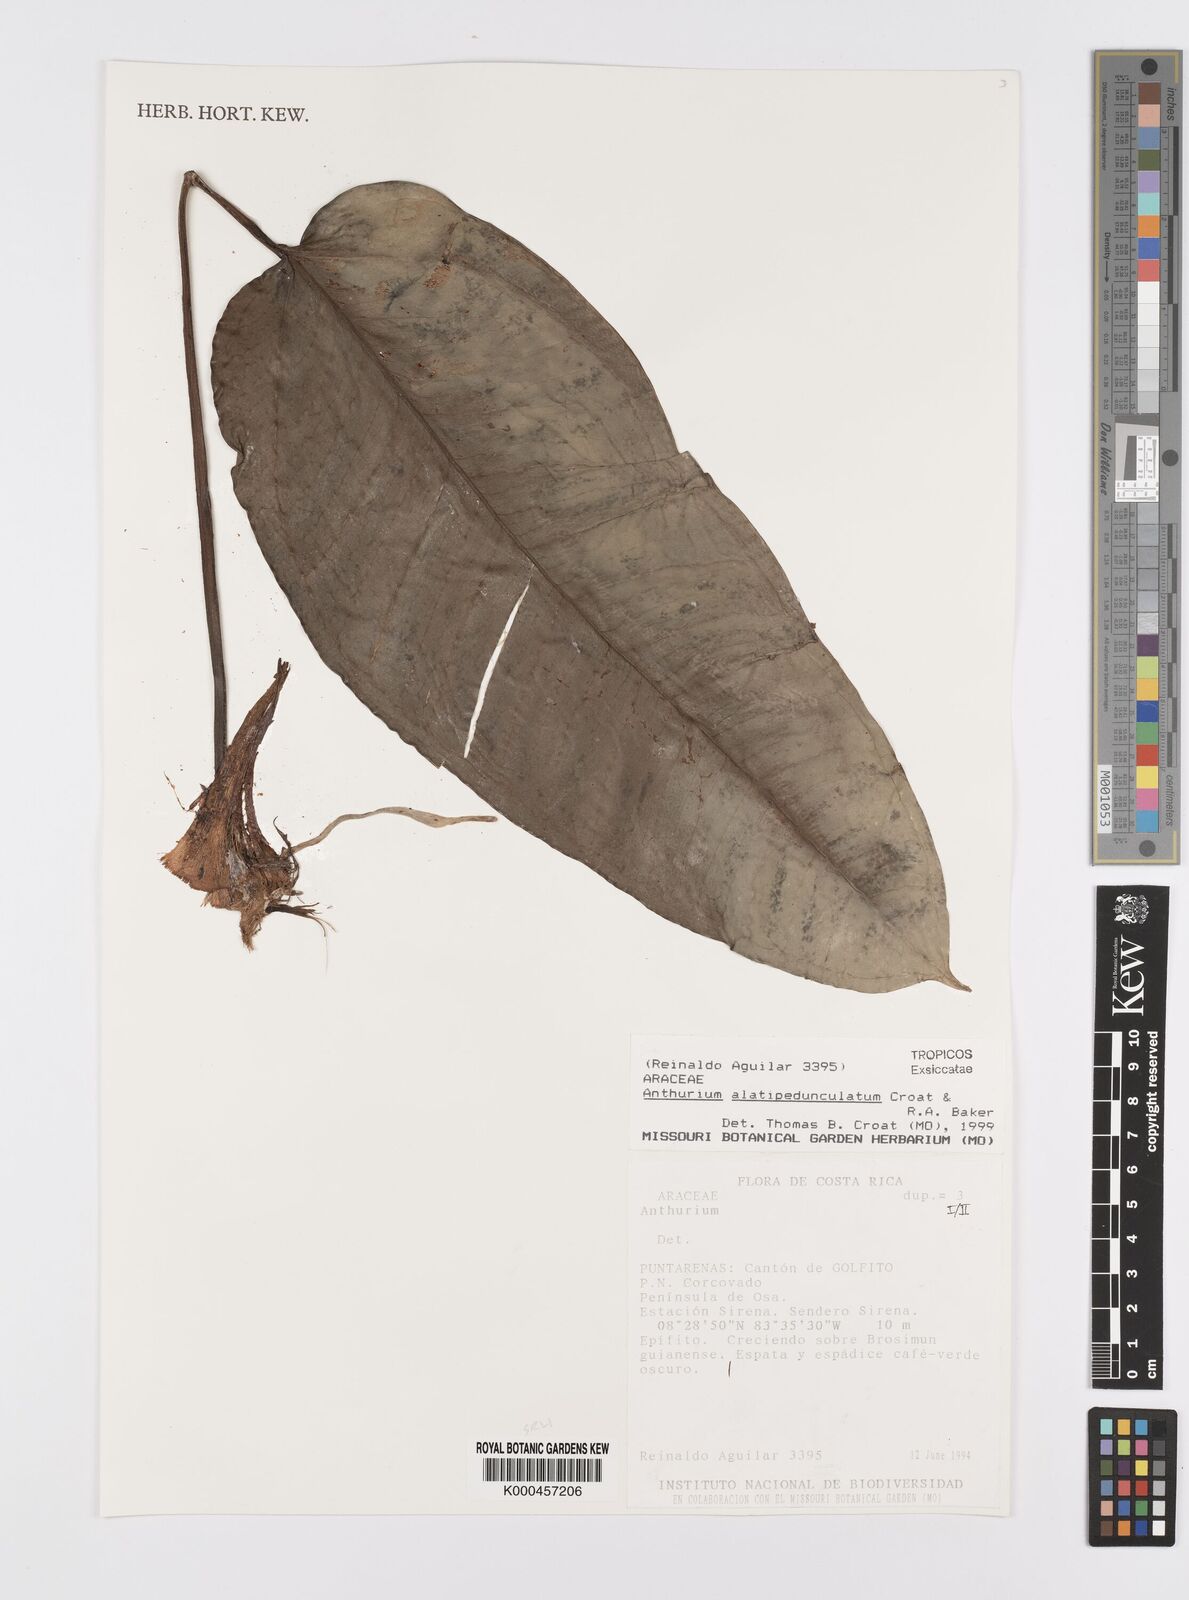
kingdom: Plantae
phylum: Tracheophyta
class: Liliopsida
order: Alismatales
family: Araceae
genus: Anthurium
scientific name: Anthurium alatipedunculatum
